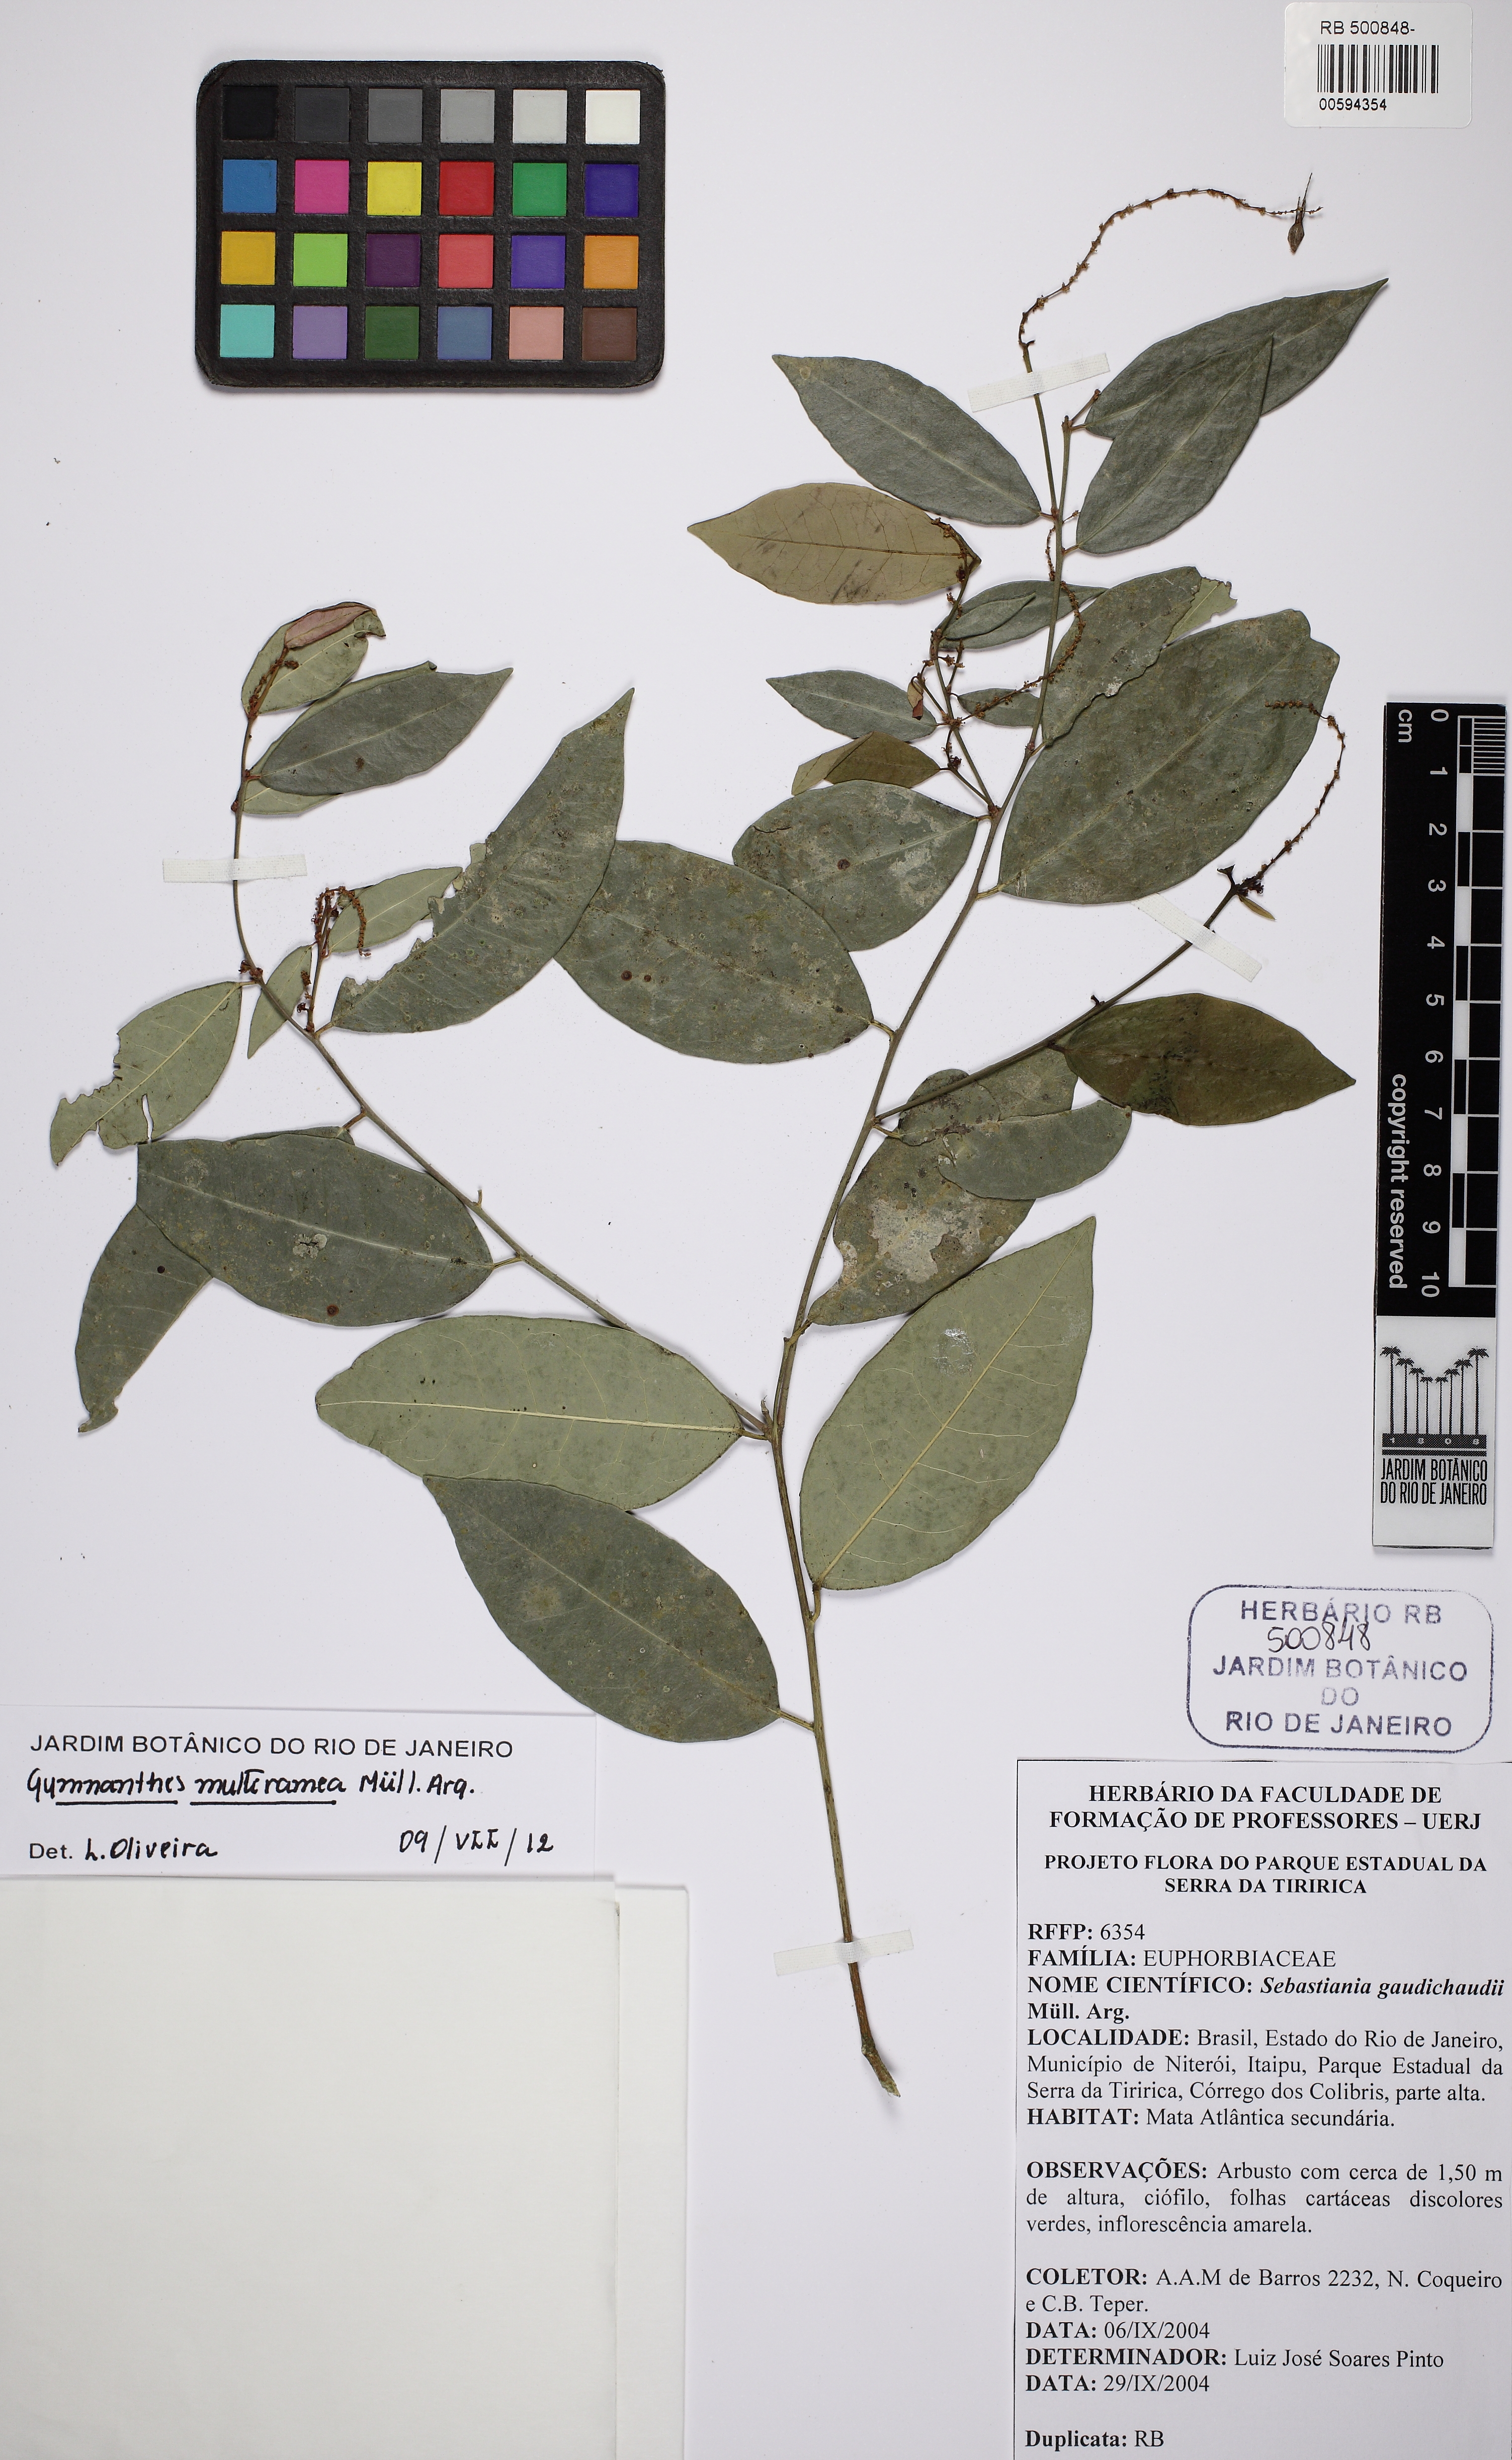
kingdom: Plantae
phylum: Tracheophyta
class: Magnoliopsida
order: Malpighiales
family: Euphorbiaceae
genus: Gymnanthes
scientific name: Gymnanthes glabrata
